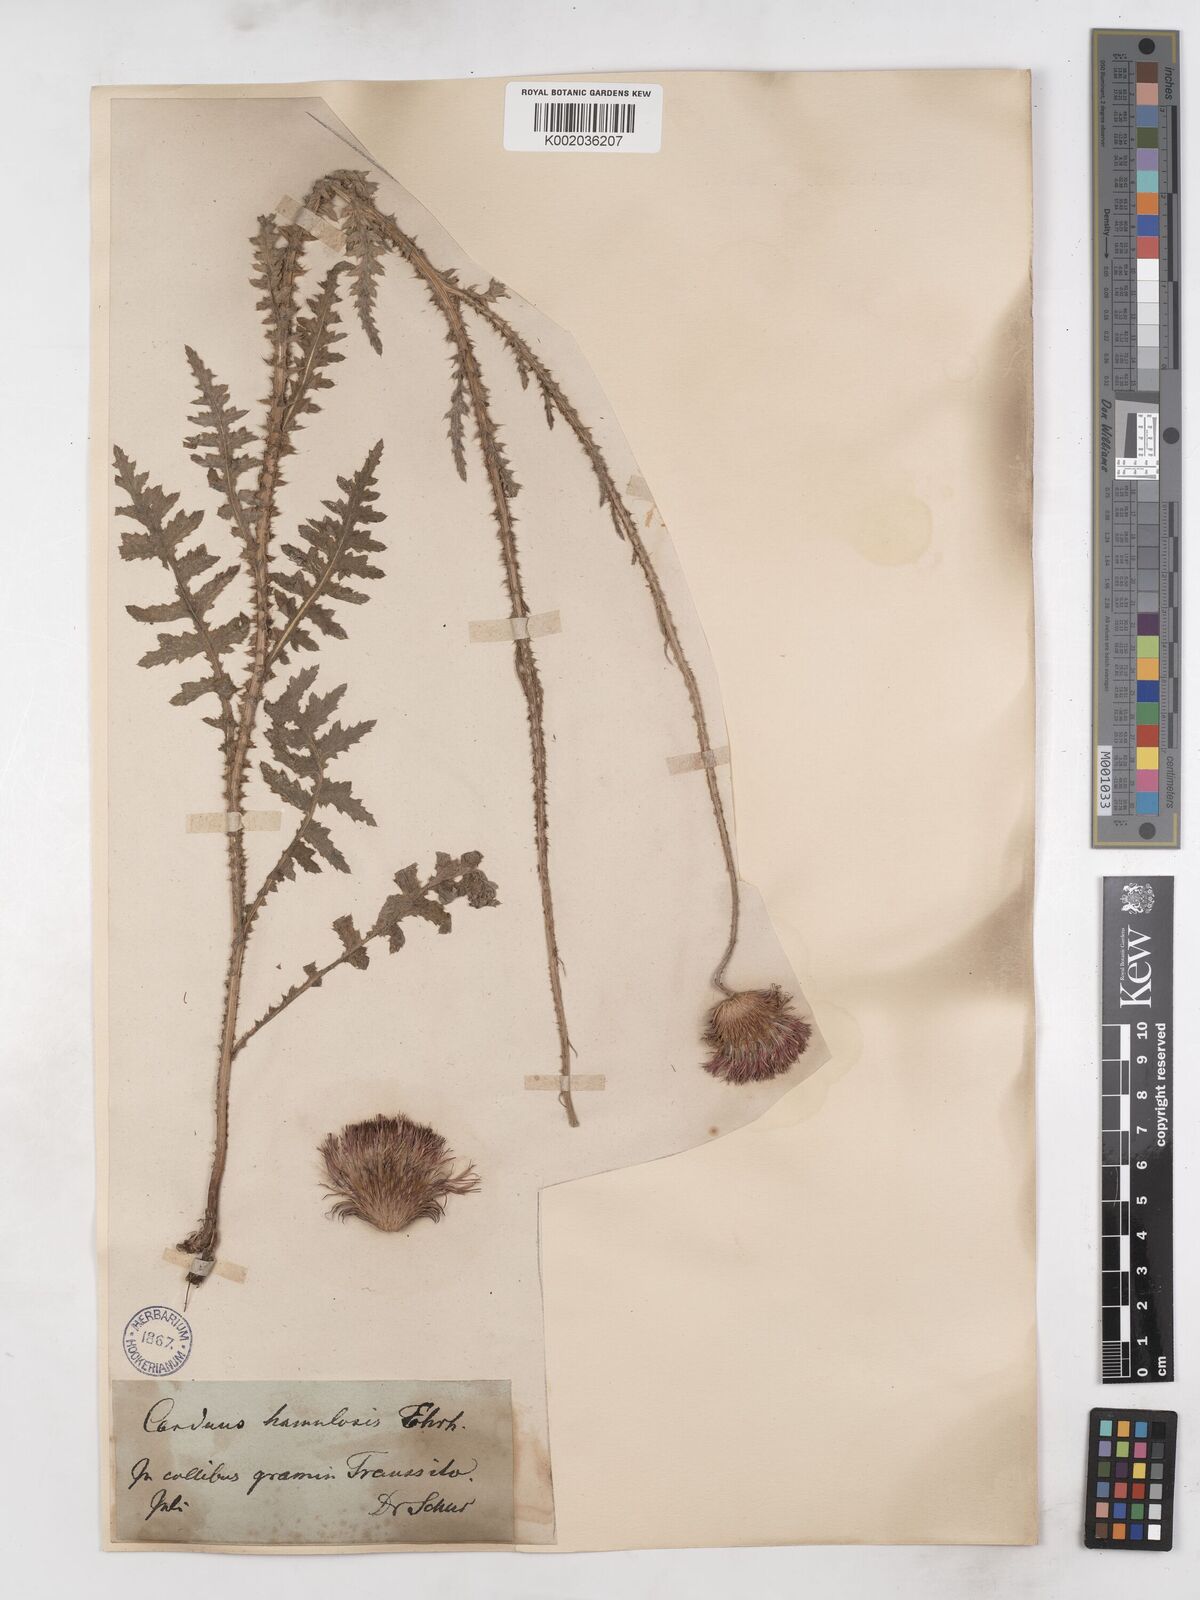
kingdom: Plantae
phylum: Tracheophyta
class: Magnoliopsida
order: Asterales
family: Asteraceae
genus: Carduus
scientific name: Carduus hamulosus
